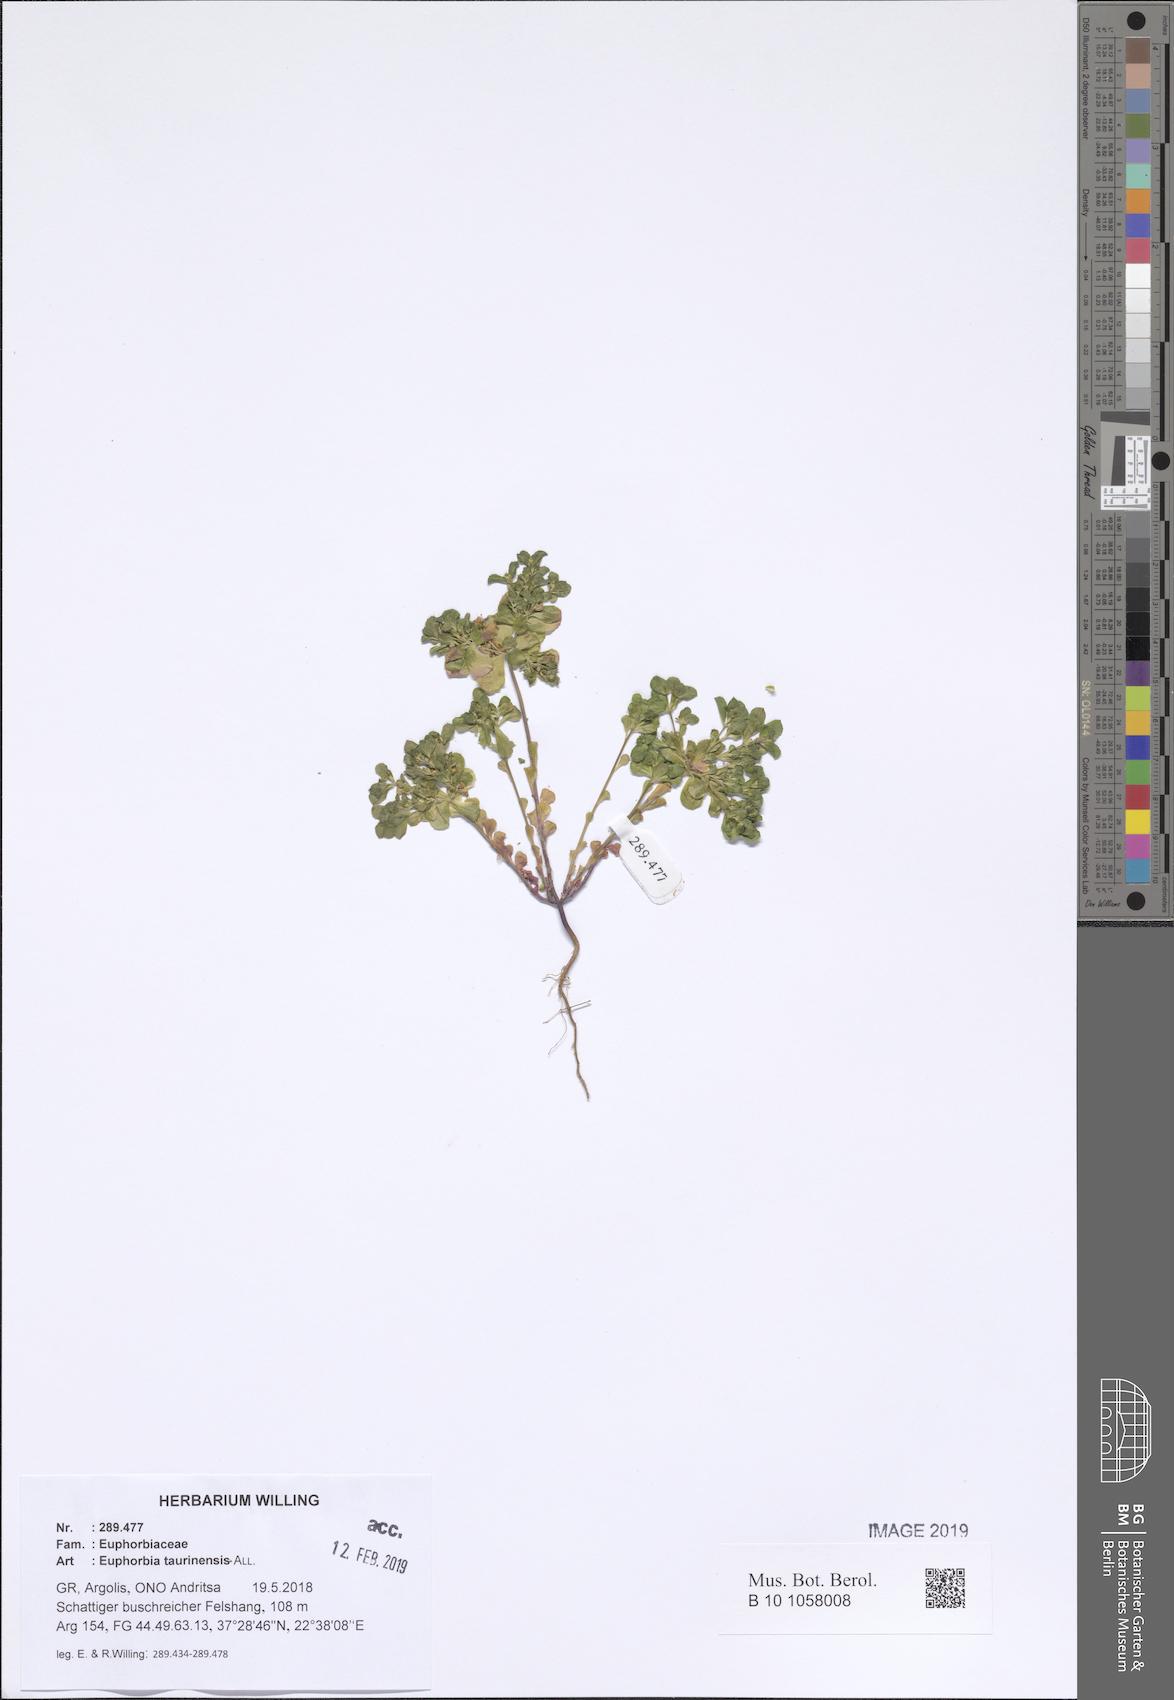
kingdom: Plantae
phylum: Tracheophyta
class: Magnoliopsida
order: Malpighiales
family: Euphorbiaceae
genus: Euphorbia
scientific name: Euphorbia taurinensis
